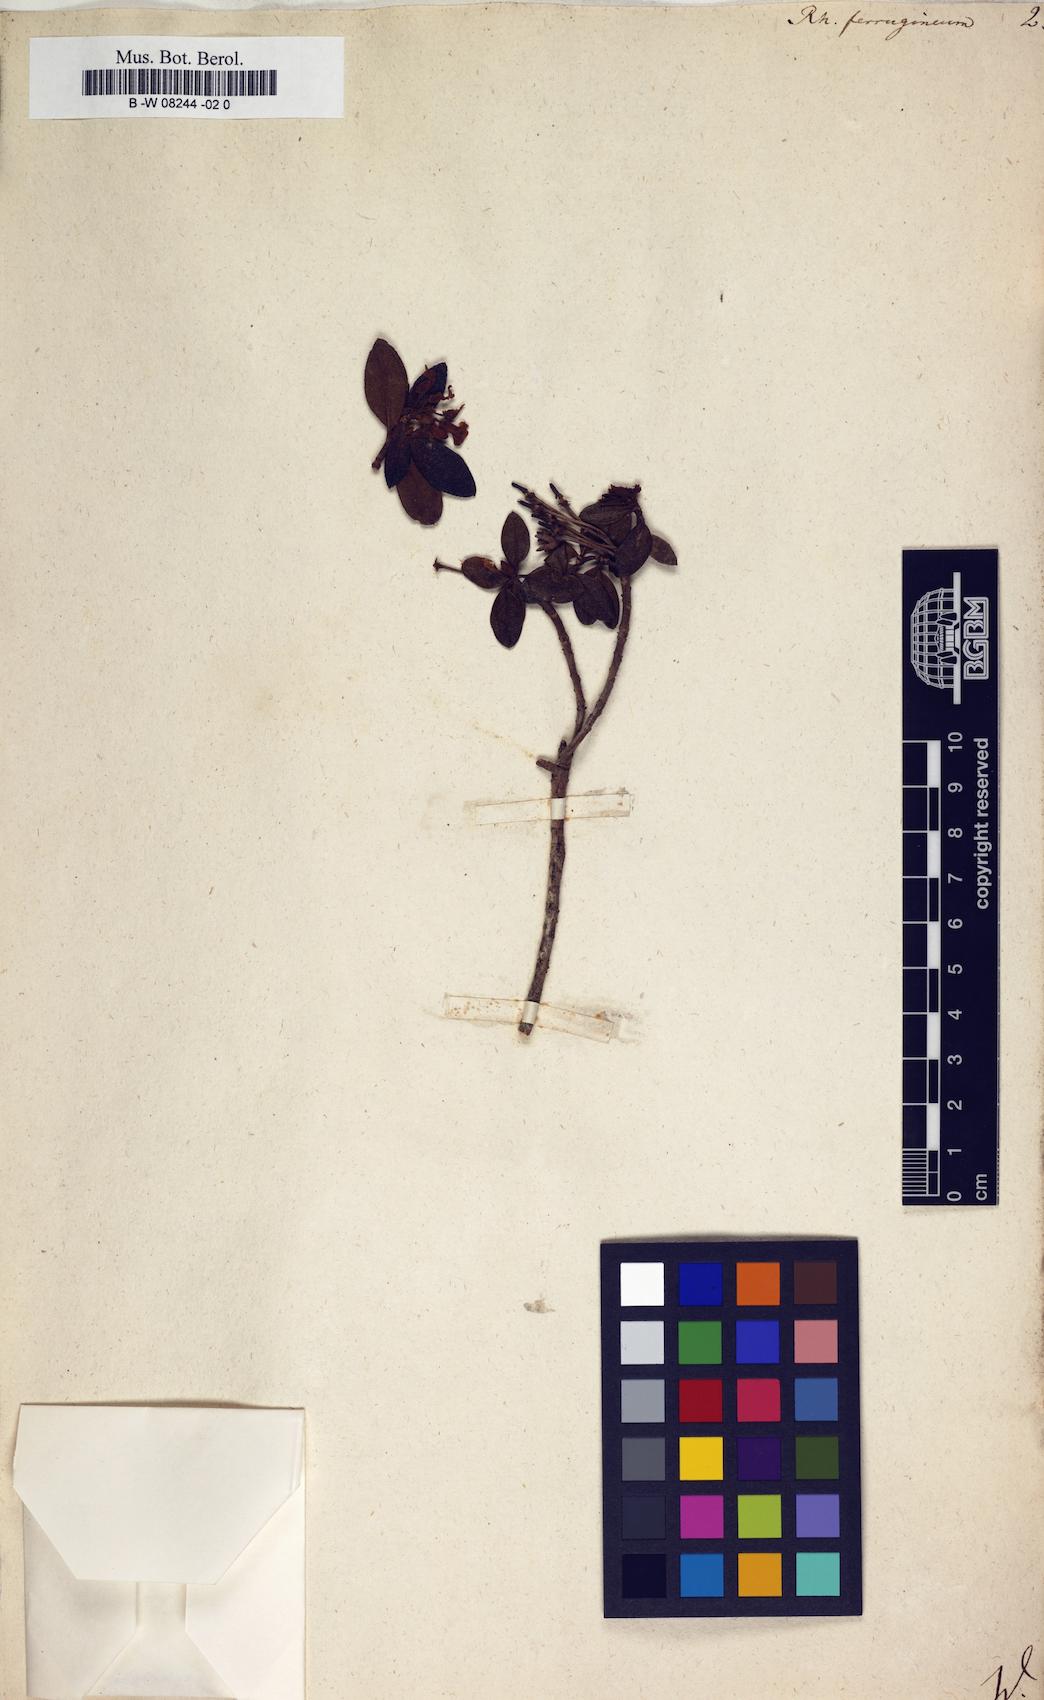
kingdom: Plantae
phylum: Tracheophyta
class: Magnoliopsida
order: Ericales
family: Ericaceae
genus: Rhododendron
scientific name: Rhododendron ferrugineum
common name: Alpenrose
